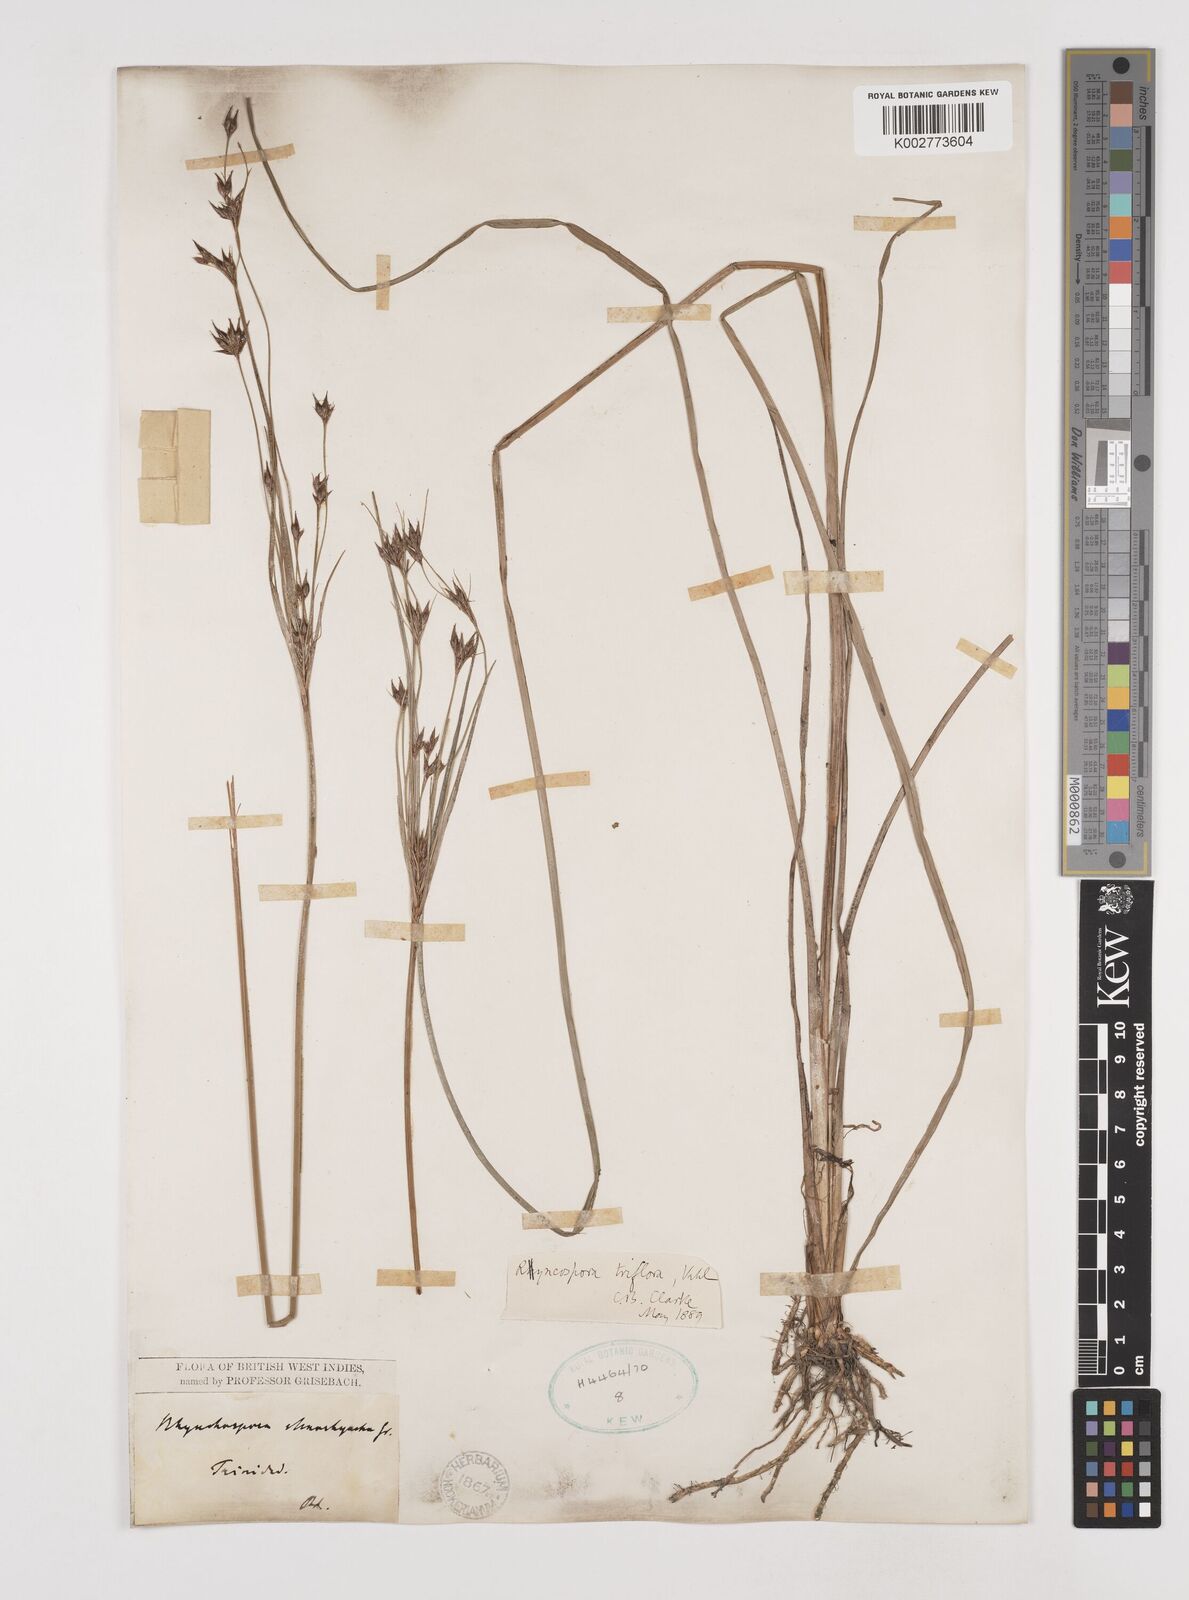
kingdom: Plantae
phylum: Tracheophyta
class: Liliopsida
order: Poales
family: Cyperaceae
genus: Rhynchospora
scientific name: Rhynchospora triflora
